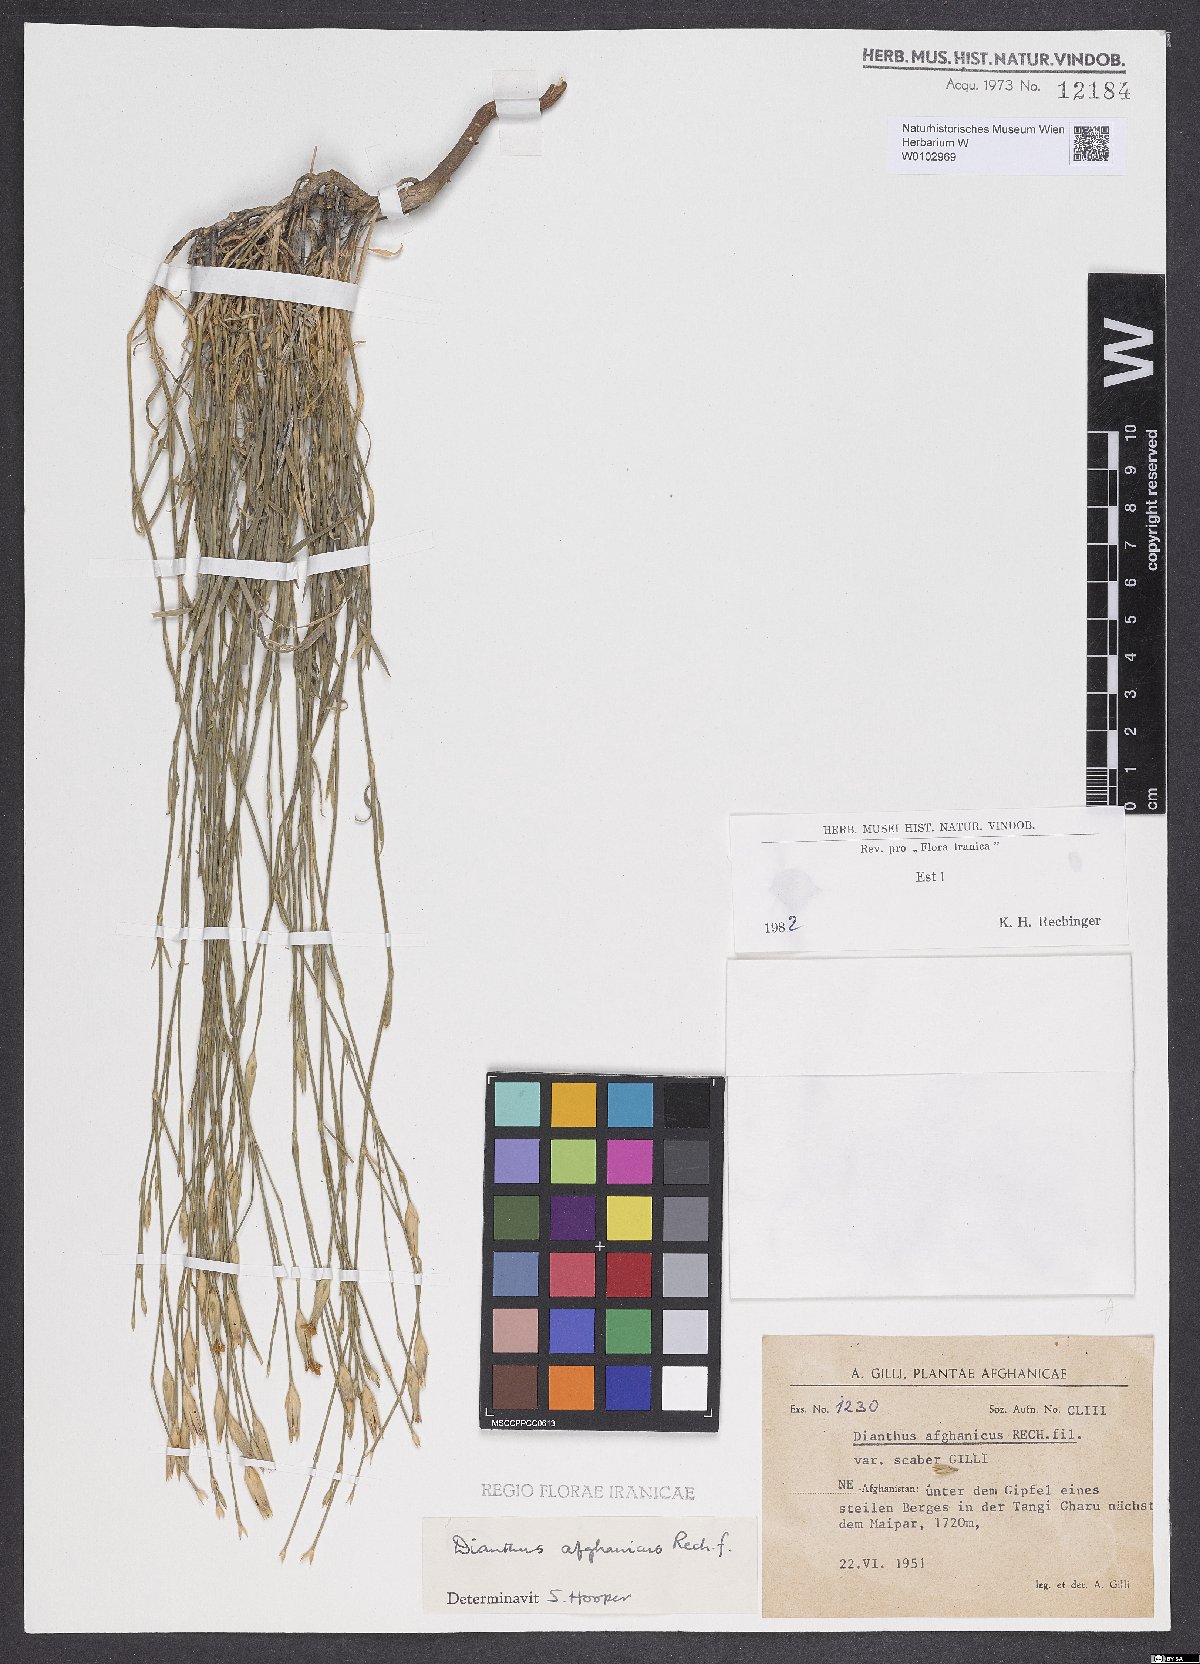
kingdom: Plantae
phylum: Tracheophyta
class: Magnoliopsida
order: Caryophyllales
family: Caryophyllaceae
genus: Dianthus
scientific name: Dianthus afghanicus
